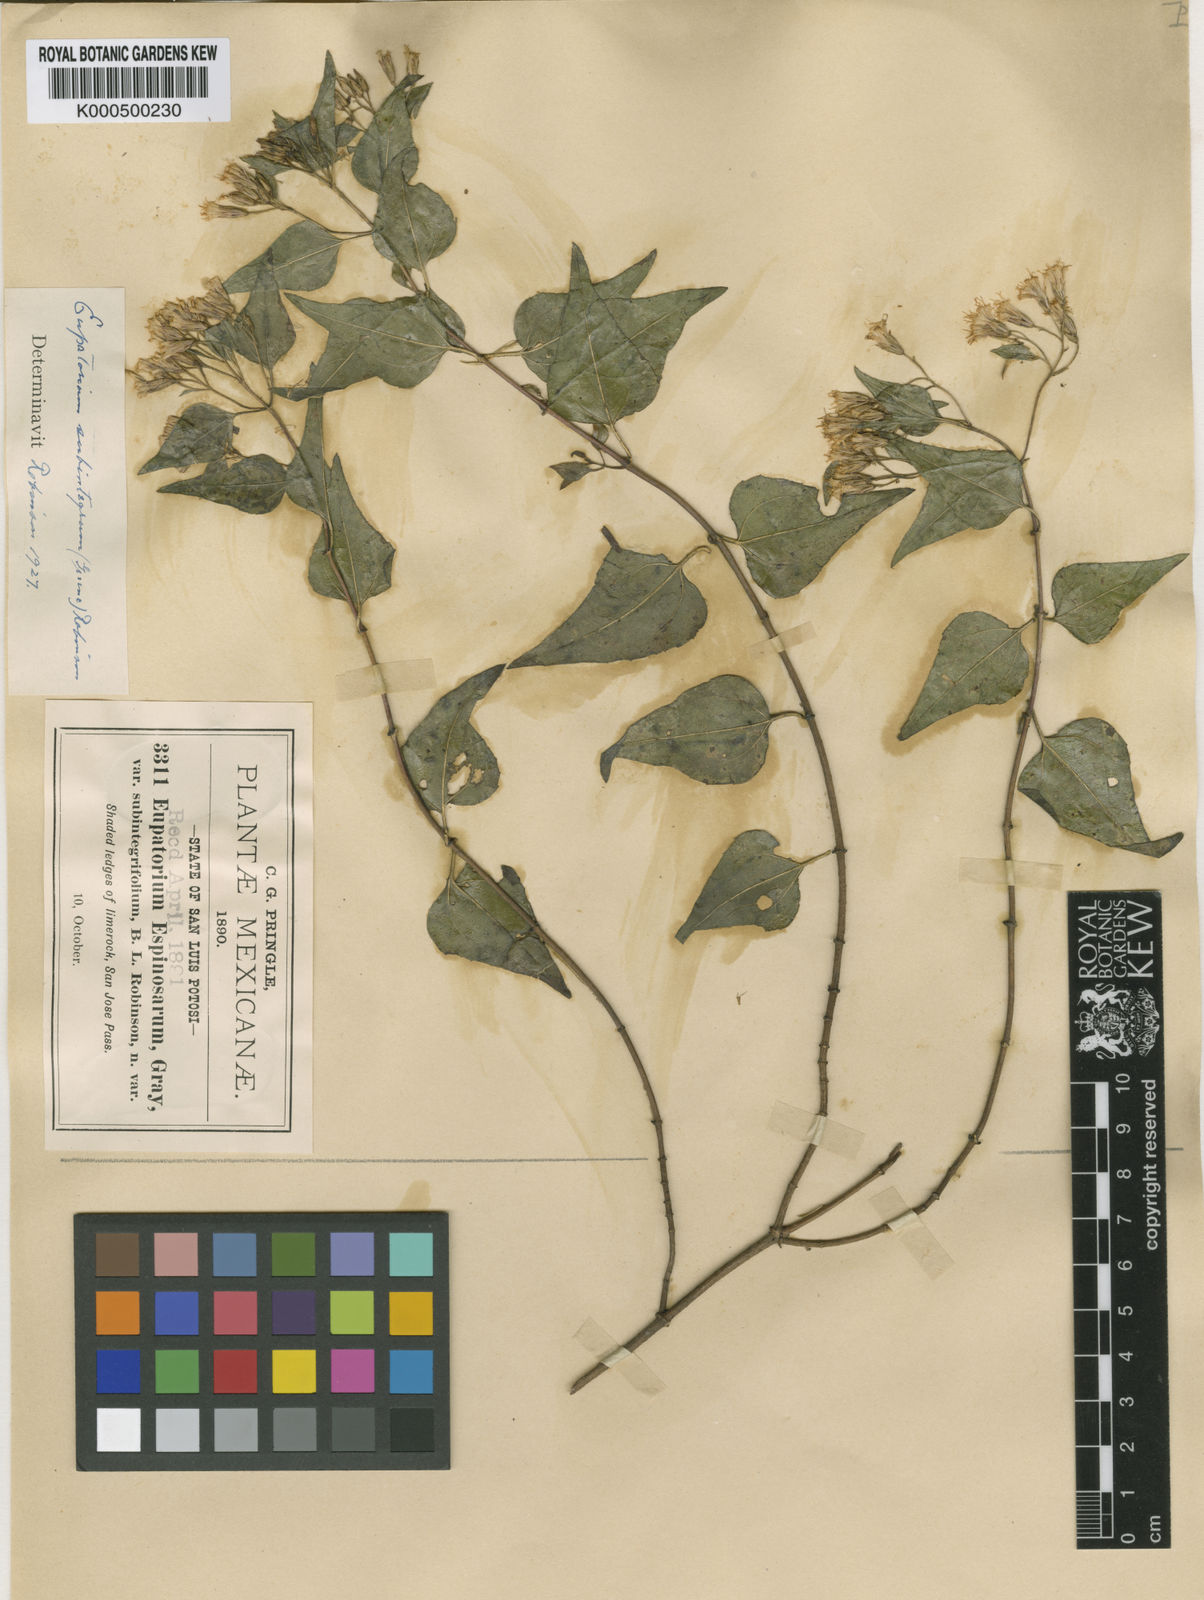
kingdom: Plantae
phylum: Tracheophyta
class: Magnoliopsida
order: Asterales
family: Asteraceae
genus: Ageratina
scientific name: Ageratina espinosarum
